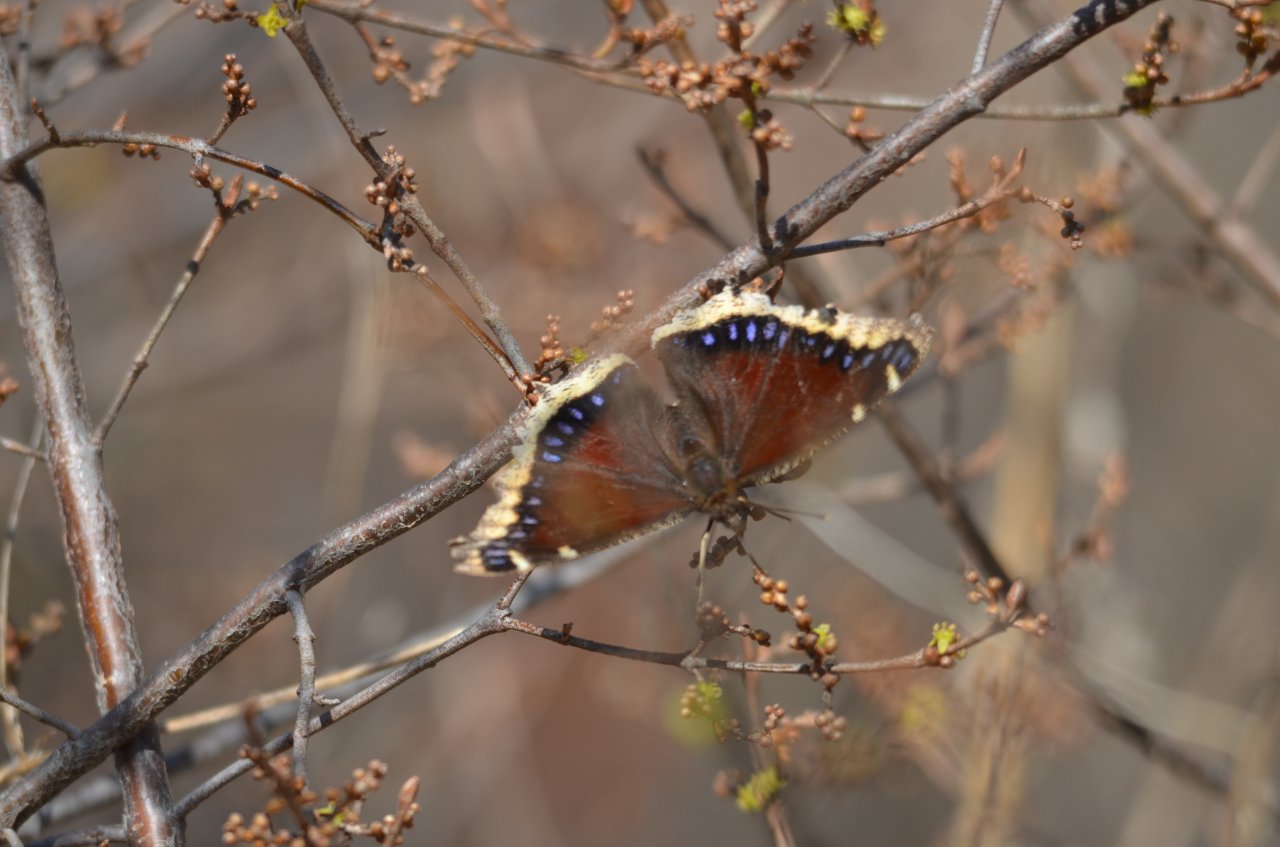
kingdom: Animalia
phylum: Arthropoda
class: Insecta
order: Lepidoptera
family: Nymphalidae
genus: Nymphalis
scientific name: Nymphalis antiopa
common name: Mourning Cloak
